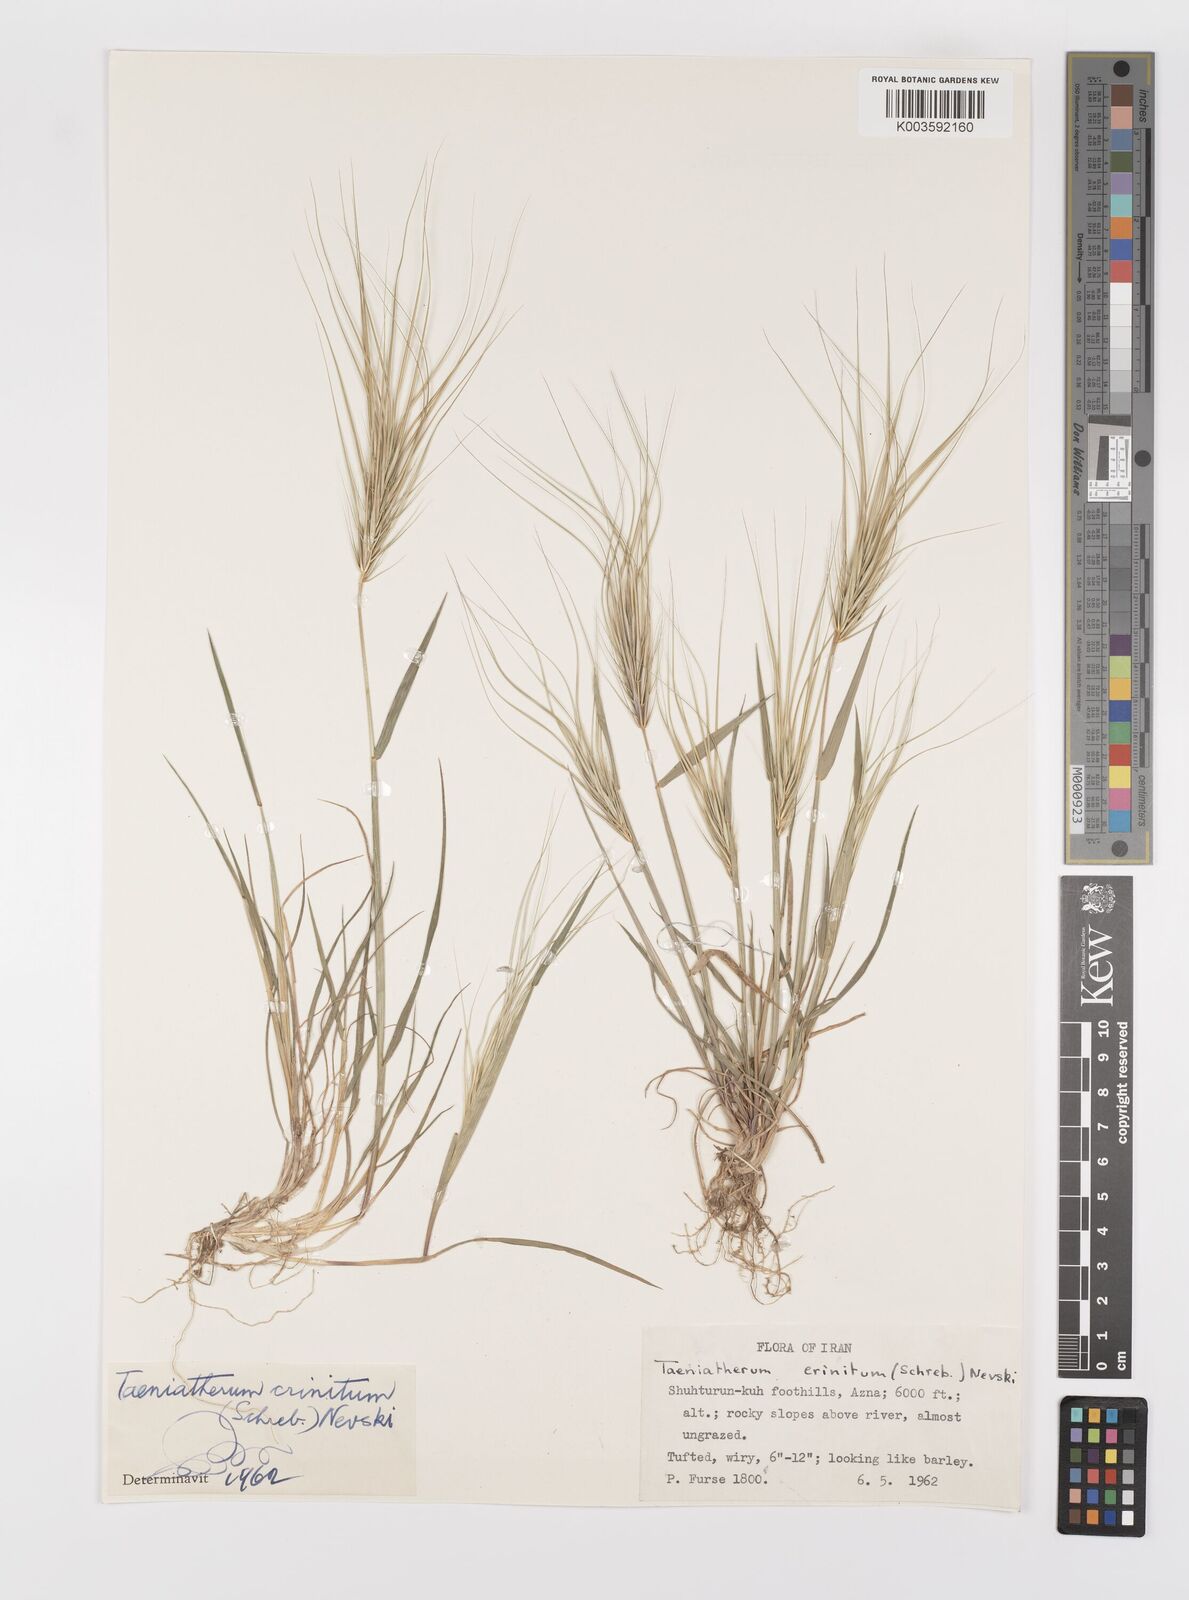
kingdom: Plantae
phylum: Tracheophyta
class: Liliopsida
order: Poales
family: Poaceae
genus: Taeniatherum
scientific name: Taeniatherum caput-medusae
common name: Medusahead
